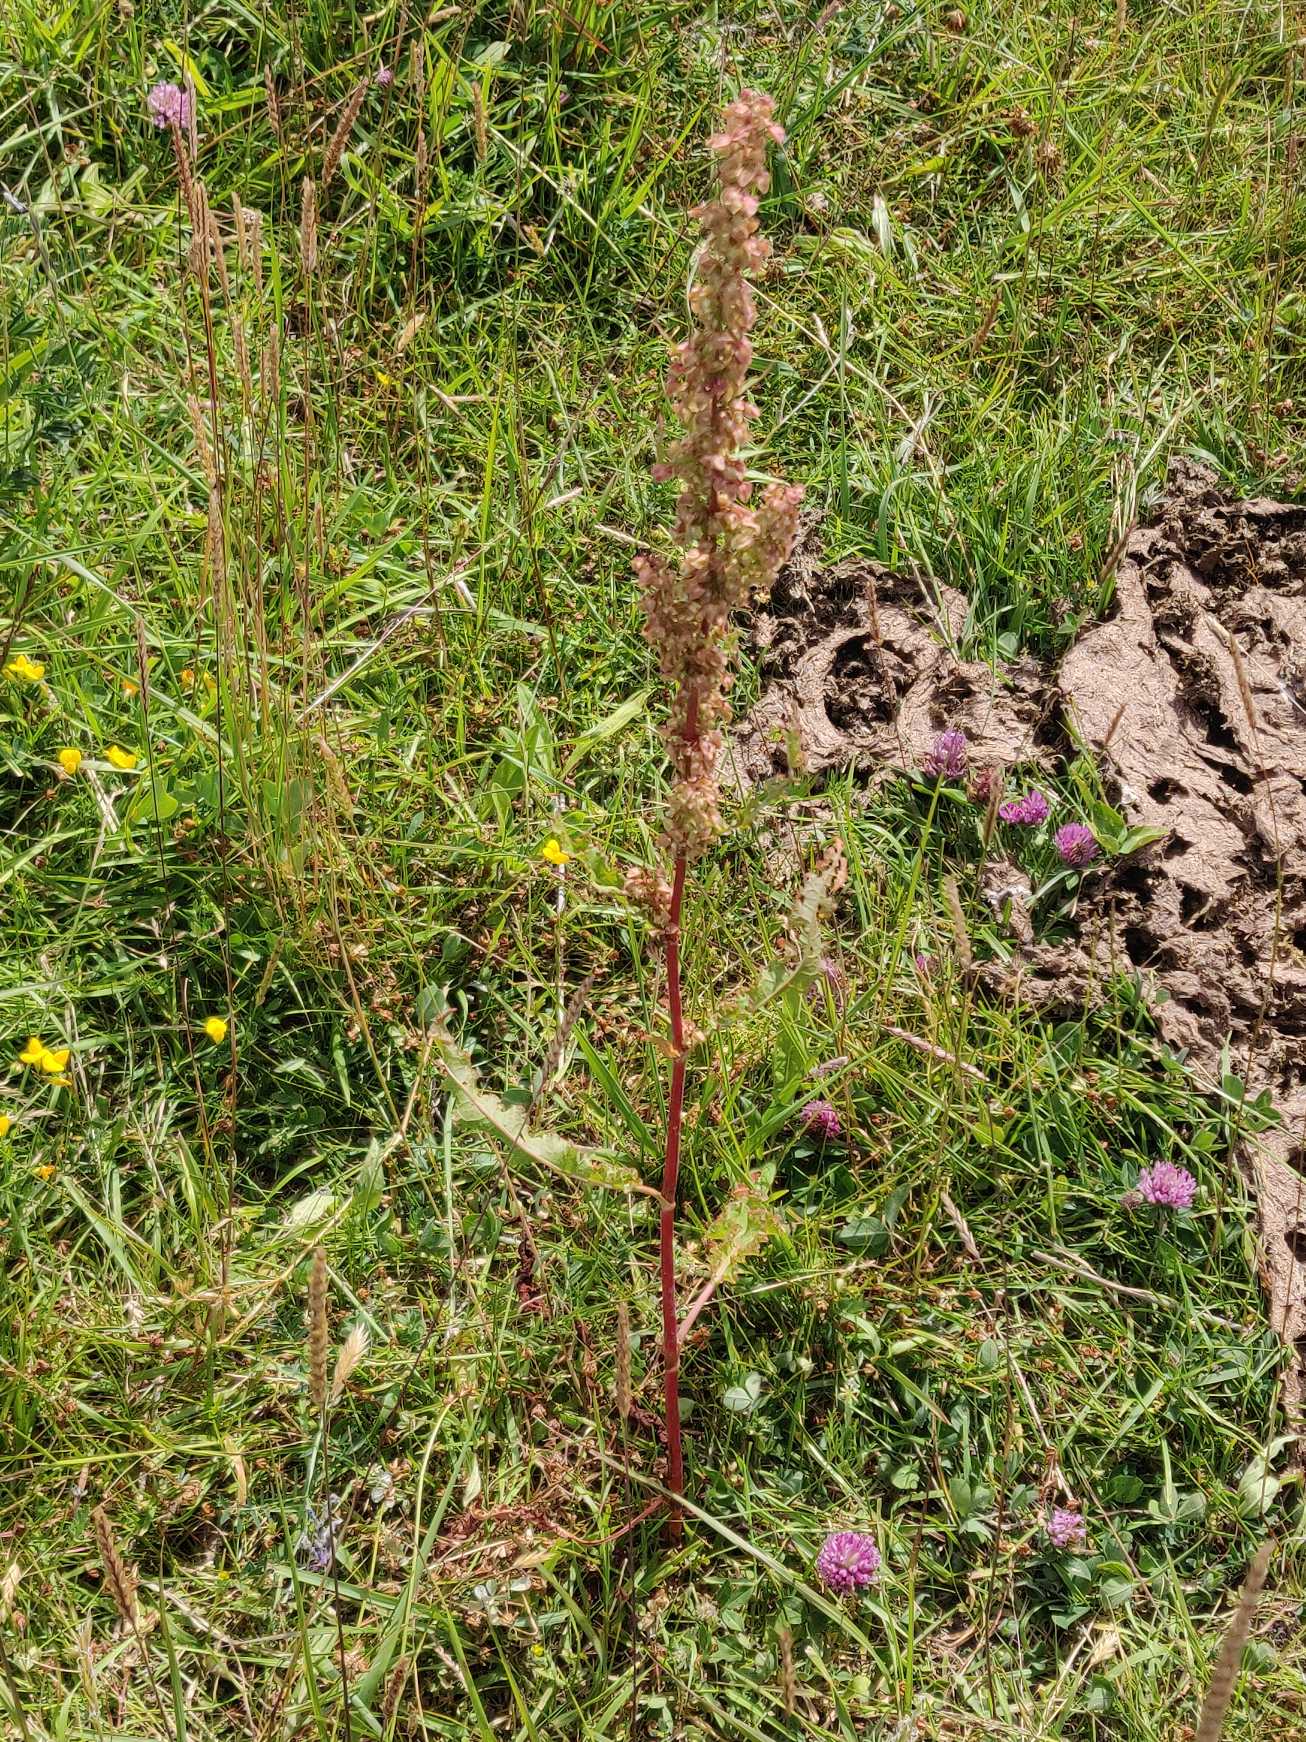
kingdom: Plantae
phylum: Tracheophyta
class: Magnoliopsida
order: Caryophyllales
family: Polygonaceae
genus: Rumex
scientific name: Rumex crispus
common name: Kruset skræppe
